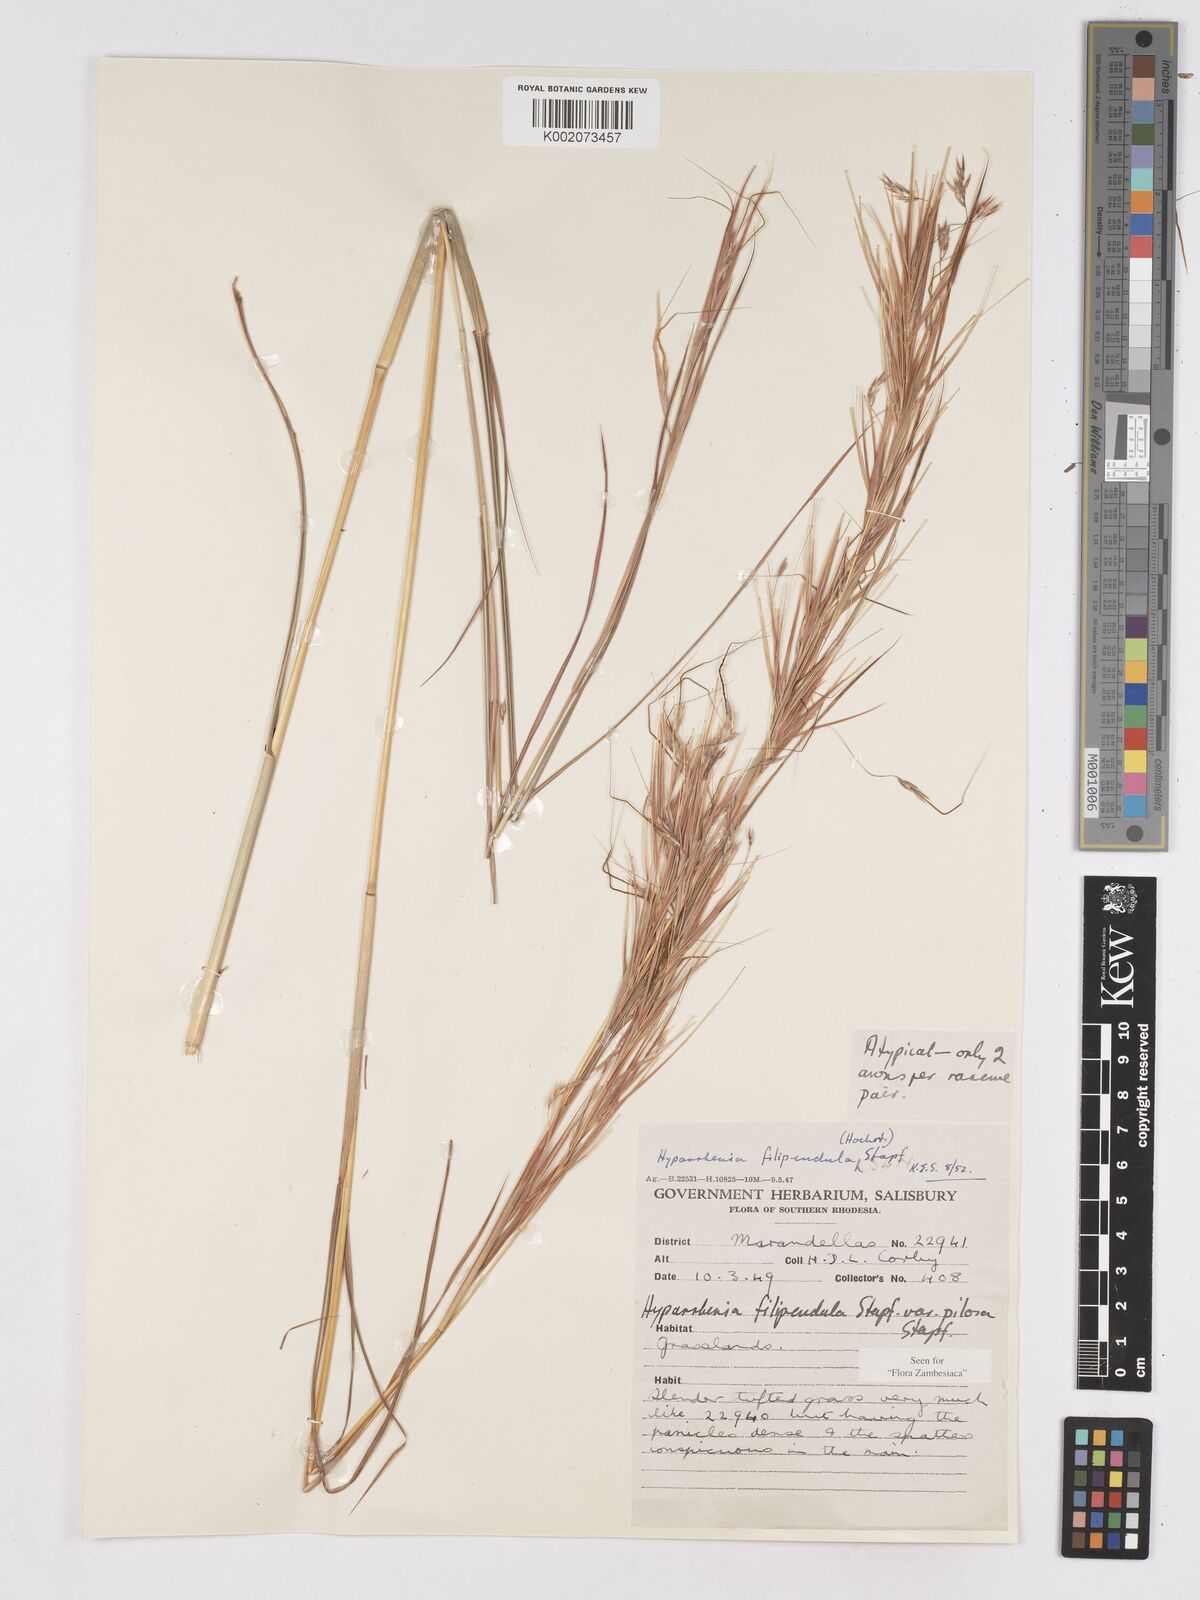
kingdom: Plantae
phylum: Tracheophyta
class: Liliopsida
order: Poales
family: Poaceae
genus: Hyparrhenia
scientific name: Hyparrhenia filipendula
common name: Tambookie grass
